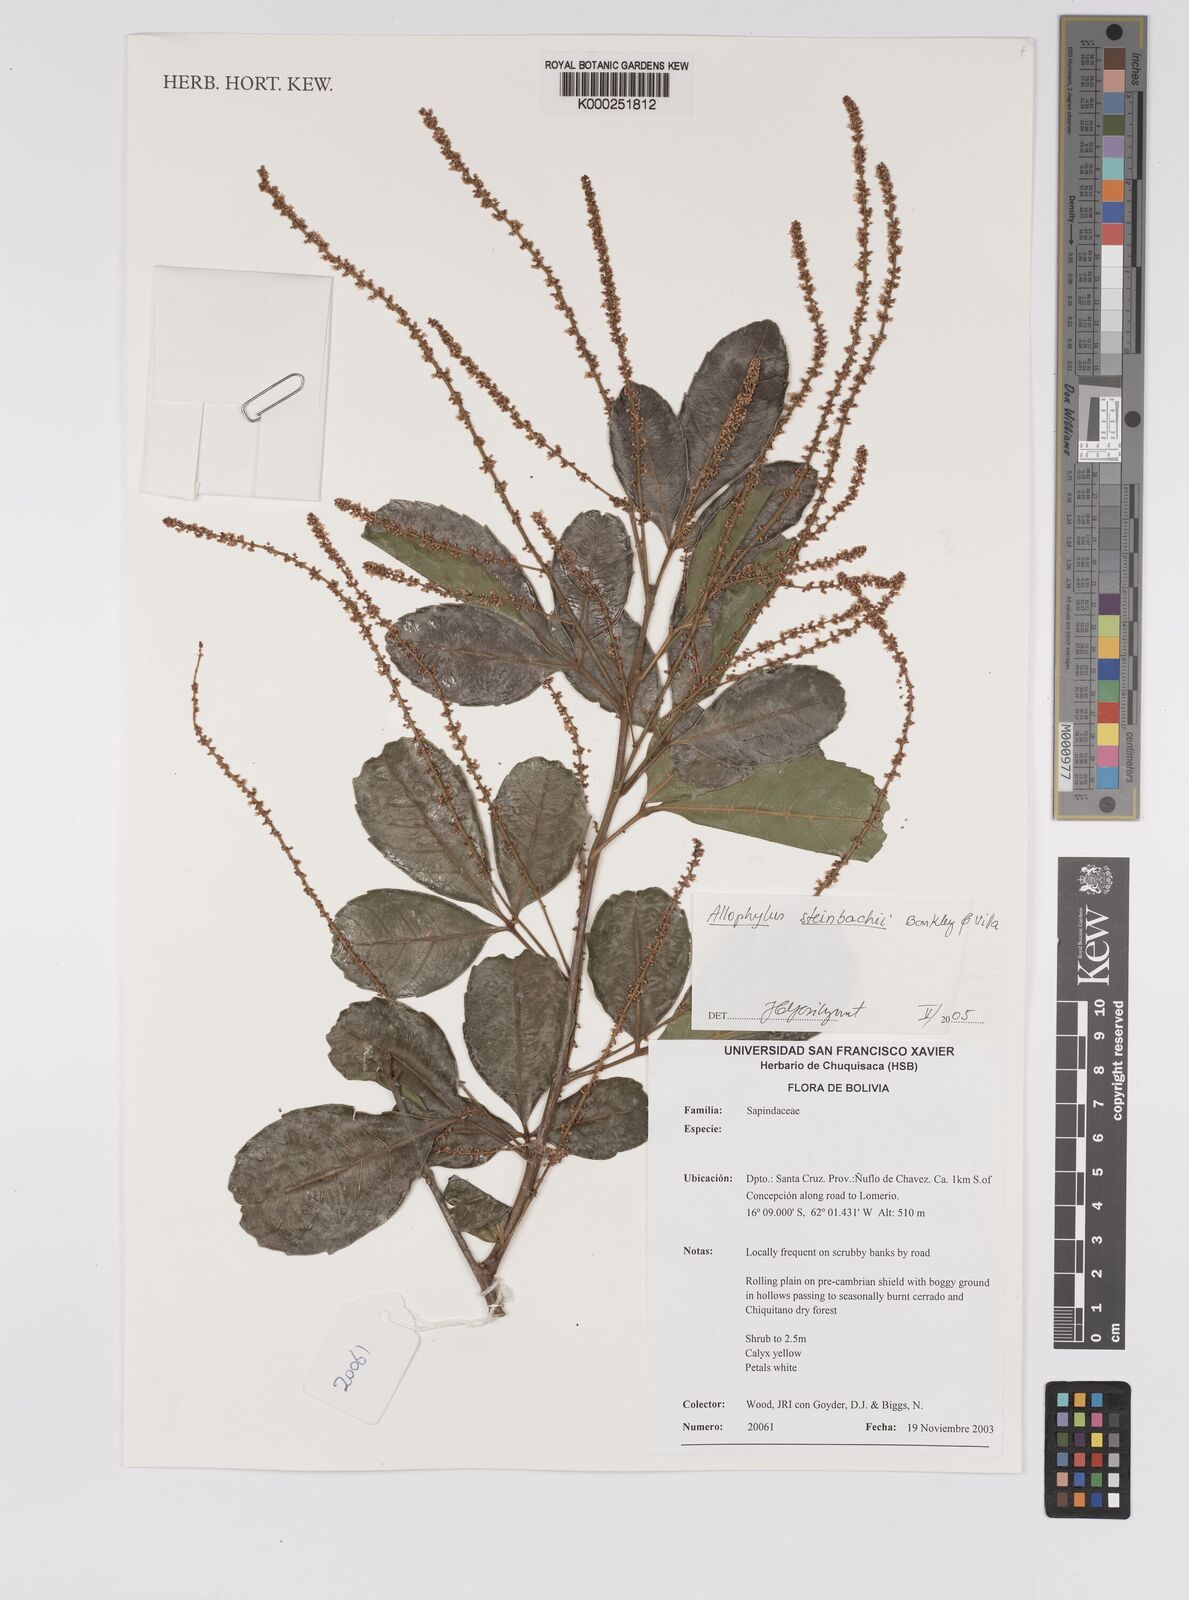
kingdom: Plantae
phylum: Tracheophyta
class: Magnoliopsida
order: Sapindales
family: Sapindaceae
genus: Allophylus
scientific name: Allophylus strictus
